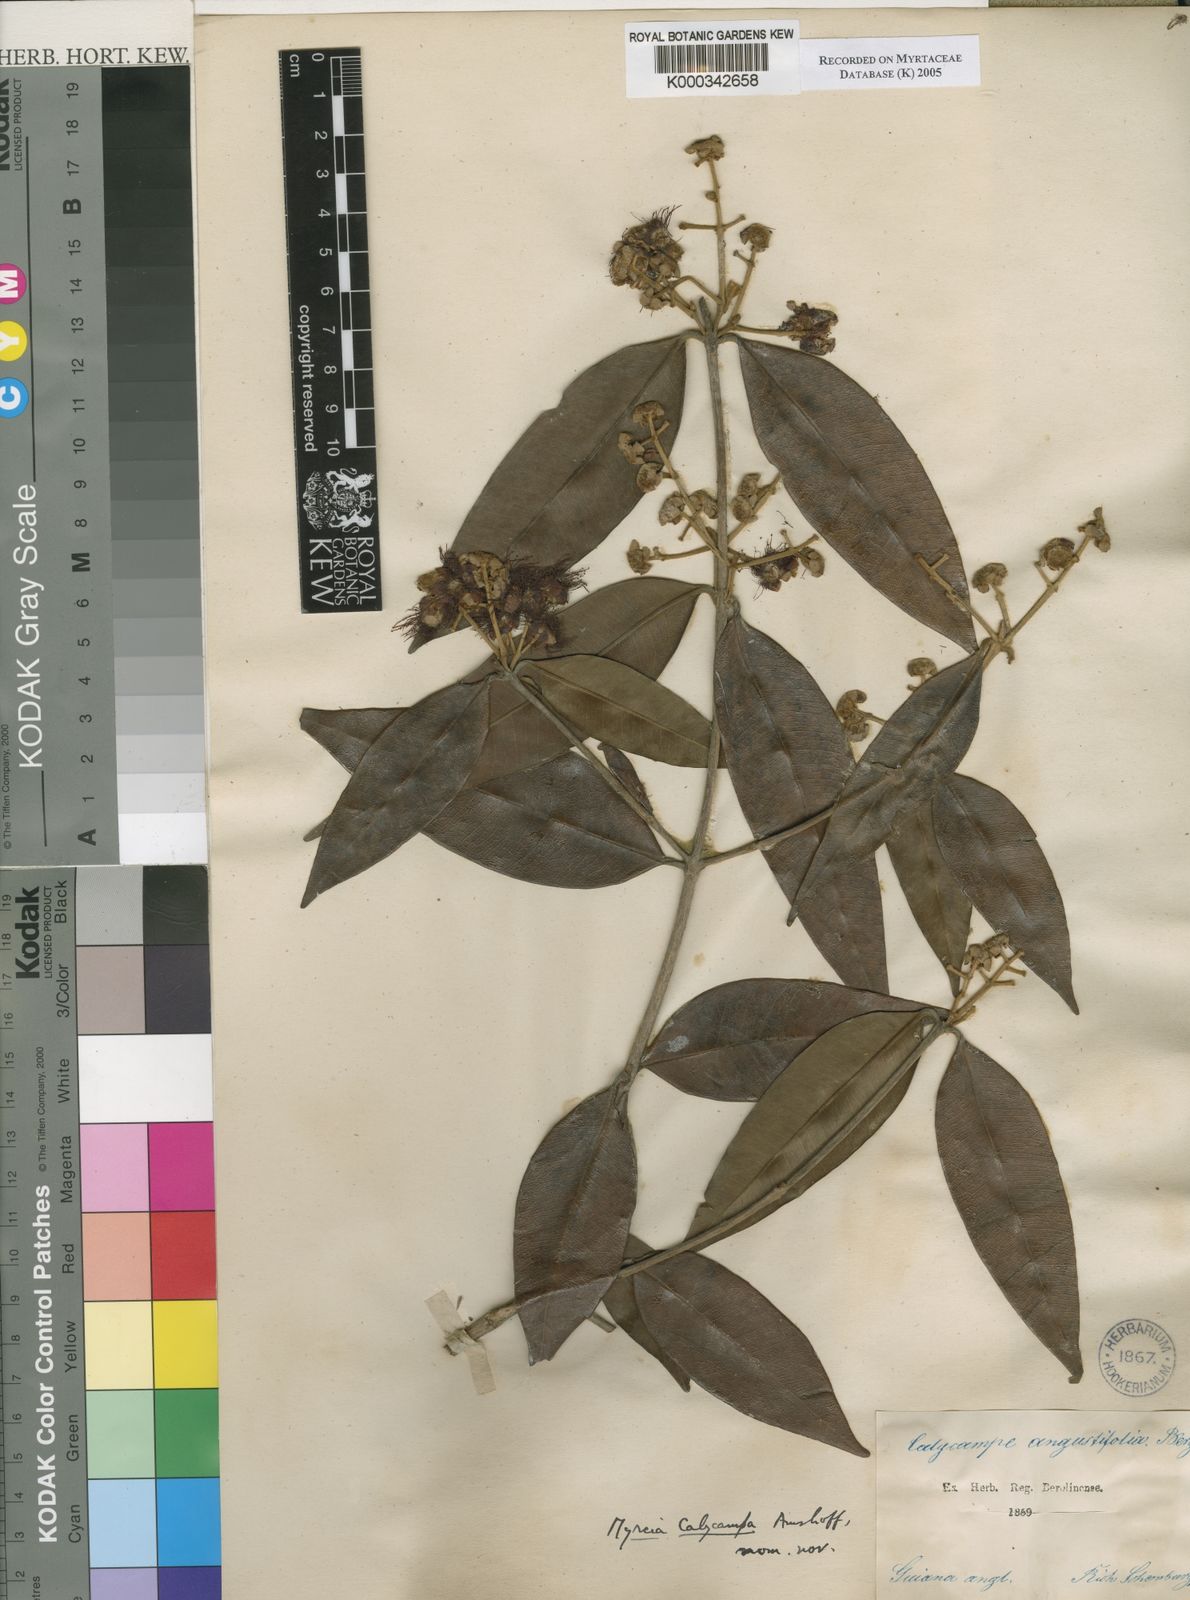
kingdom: Plantae
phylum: Tracheophyta
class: Magnoliopsida
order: Myrtales
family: Myrtaceae
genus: Myrcia
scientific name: Myrcia calycampa
